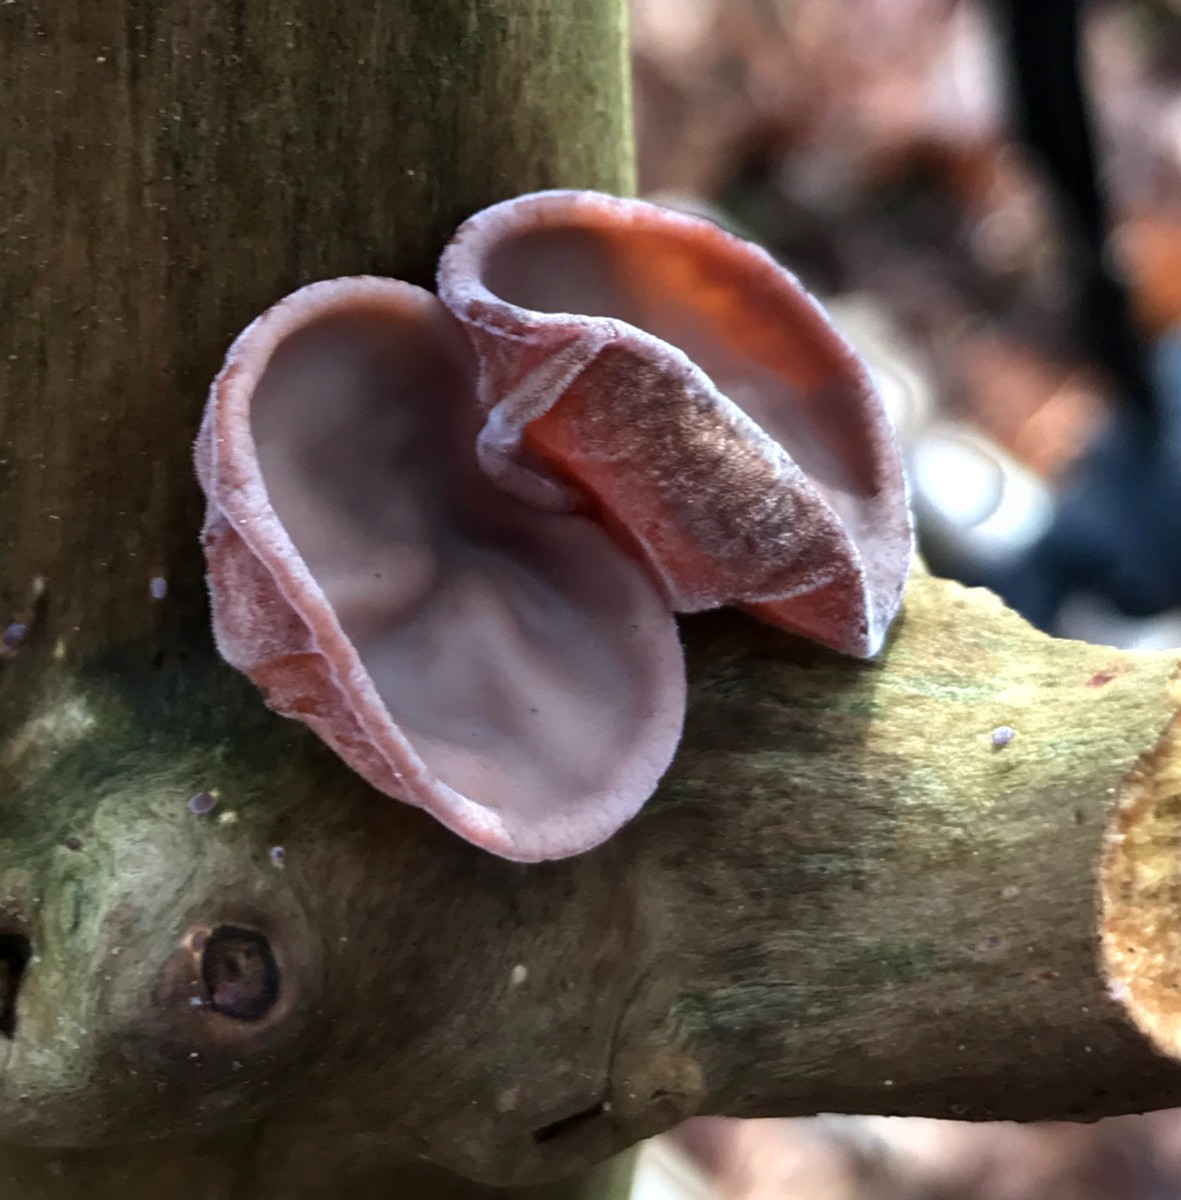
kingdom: Fungi
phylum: Basidiomycota
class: Agaricomycetes
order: Auriculariales
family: Auriculariaceae
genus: Auricularia
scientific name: Auricularia auricula-judae
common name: almindelig judasøre
